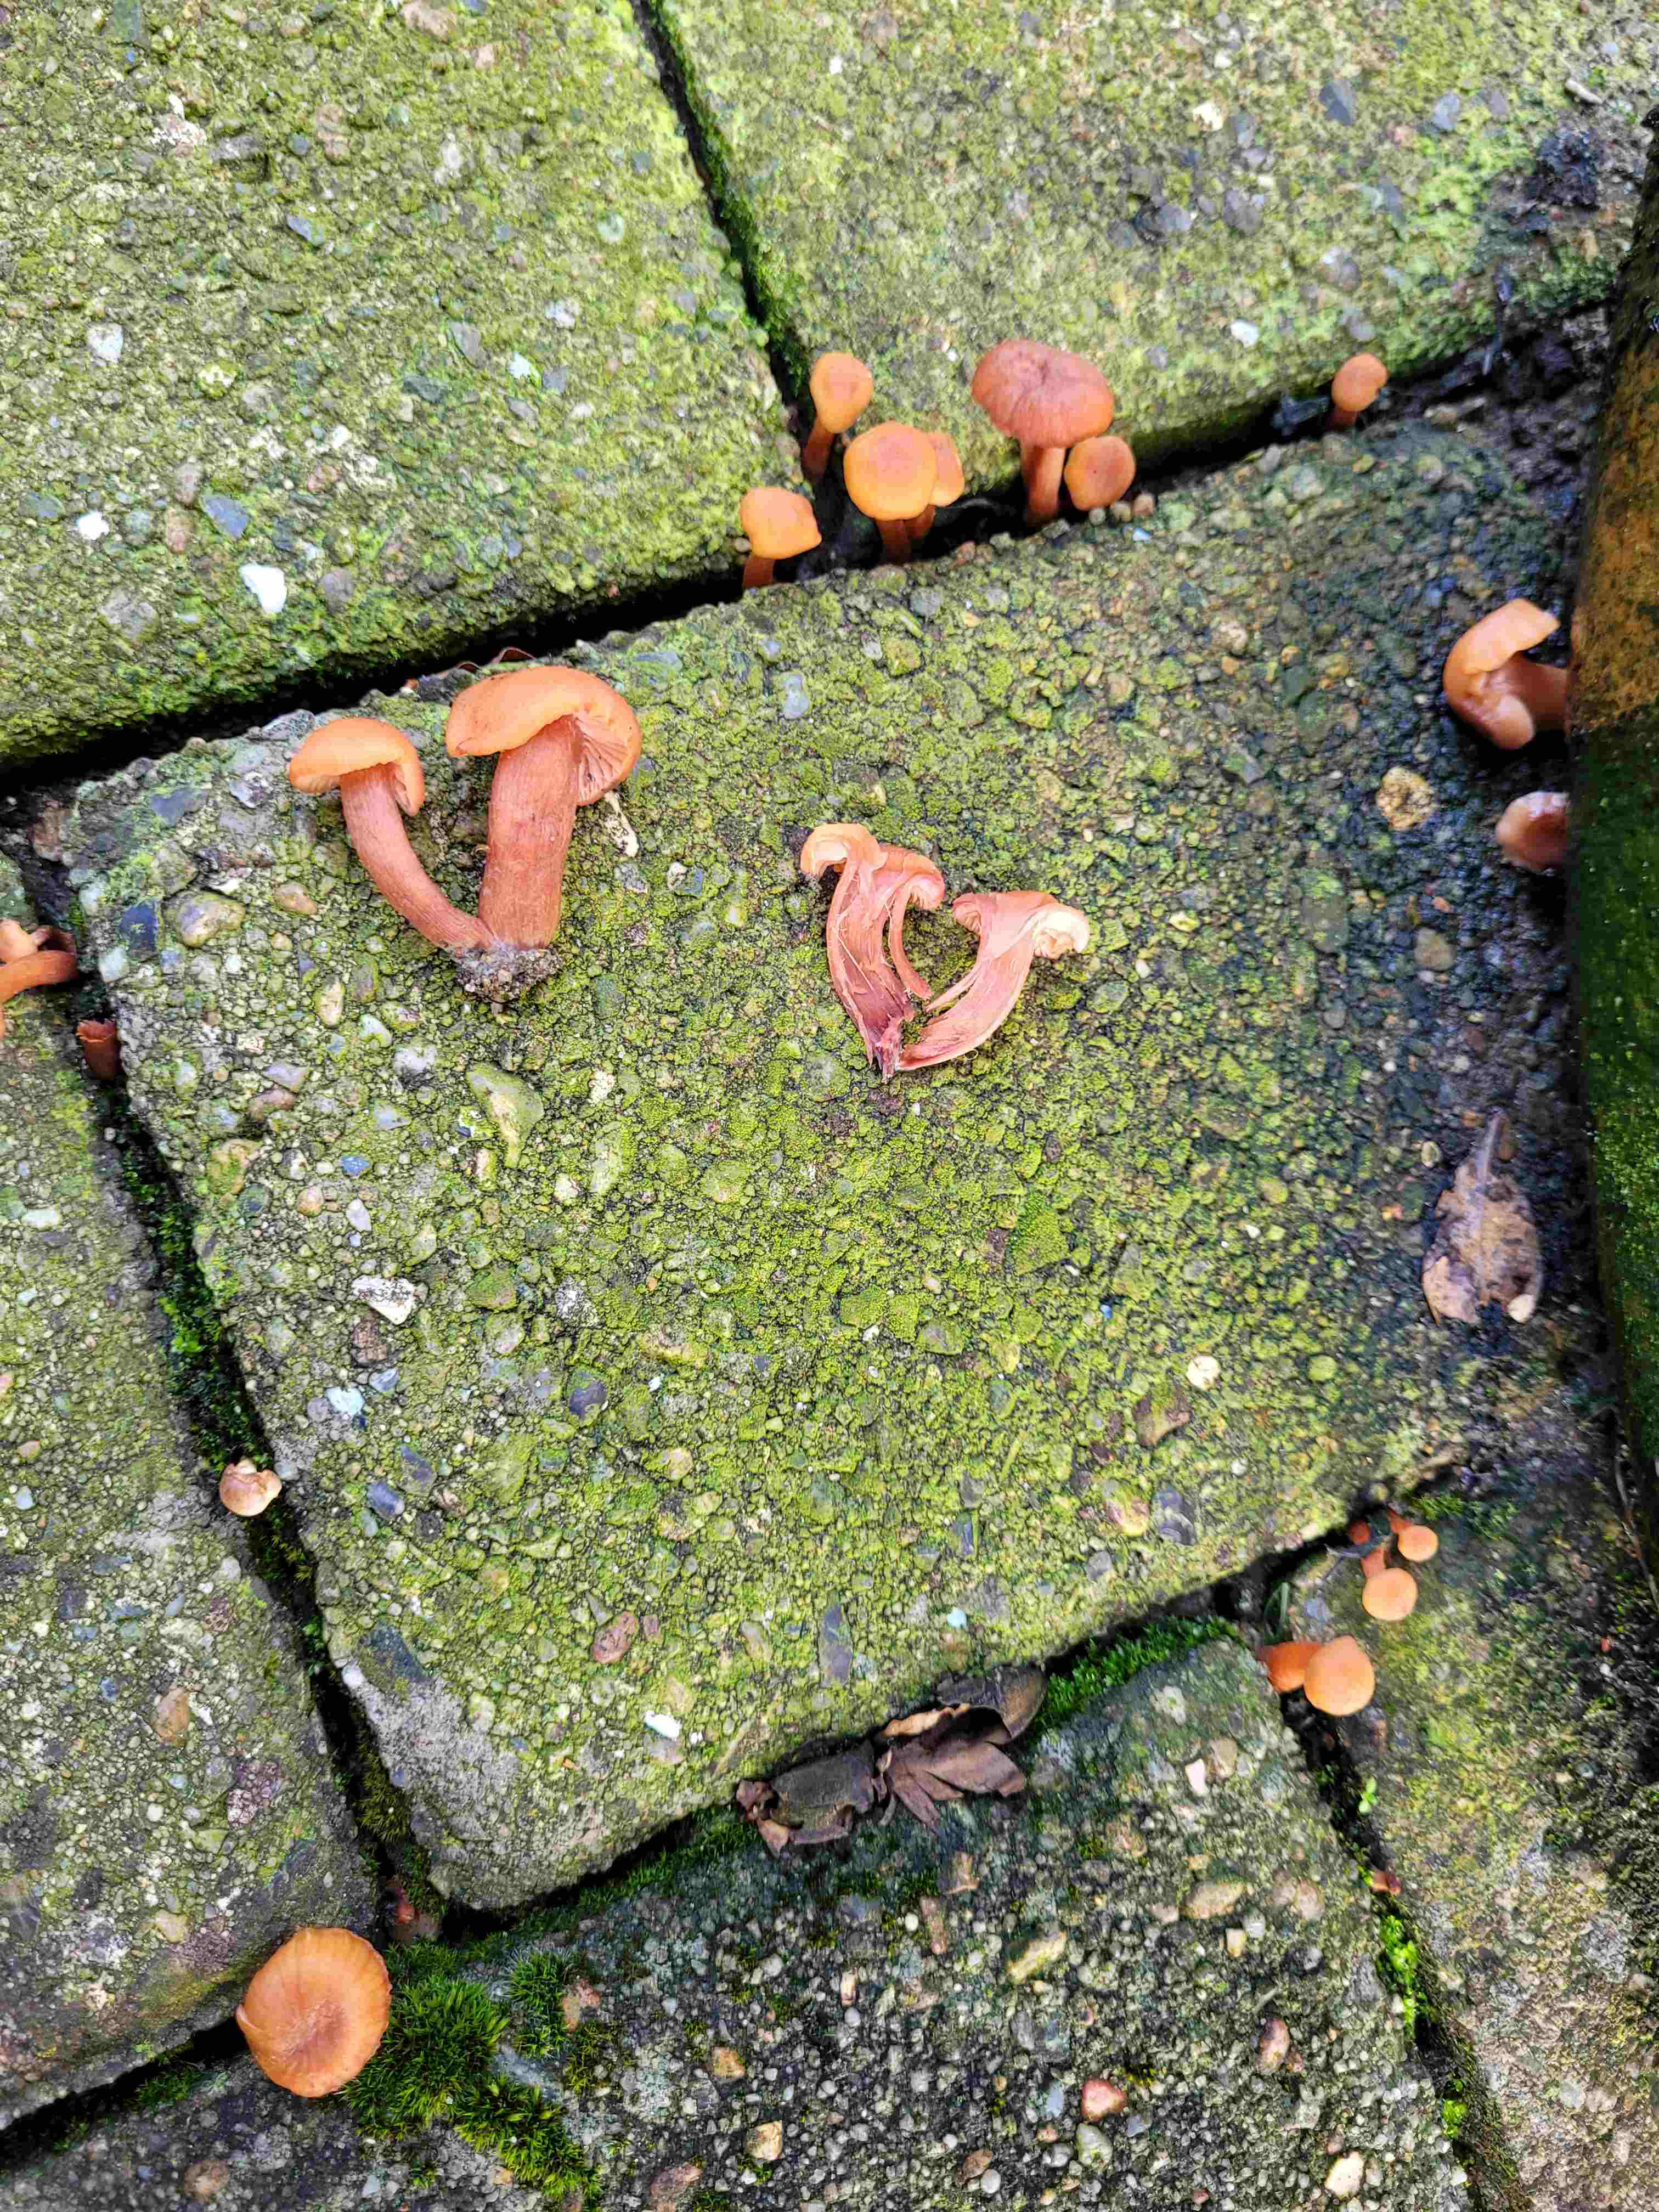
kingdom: Fungi
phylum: Basidiomycota
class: Agaricomycetes
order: Agaricales
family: Hydnangiaceae
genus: Laccaria
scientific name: Laccaria laccata
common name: rød ametysthat
